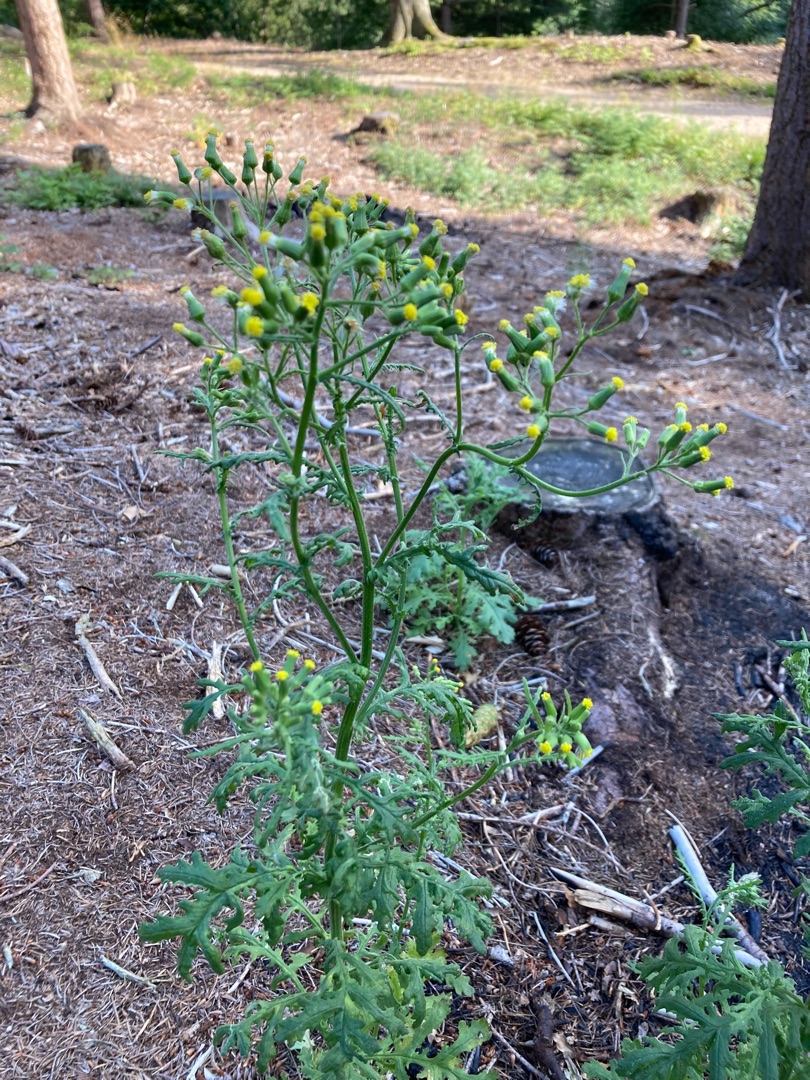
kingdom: Plantae
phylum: Tracheophyta
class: Magnoliopsida
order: Asterales
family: Asteraceae
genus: Senecio
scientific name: Senecio sylvaticus
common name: Skov-brandbæger
